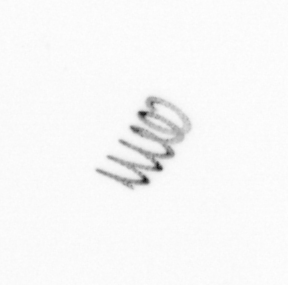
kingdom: Chromista
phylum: Ochrophyta
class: Bacillariophyceae
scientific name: Bacillariophyceae
